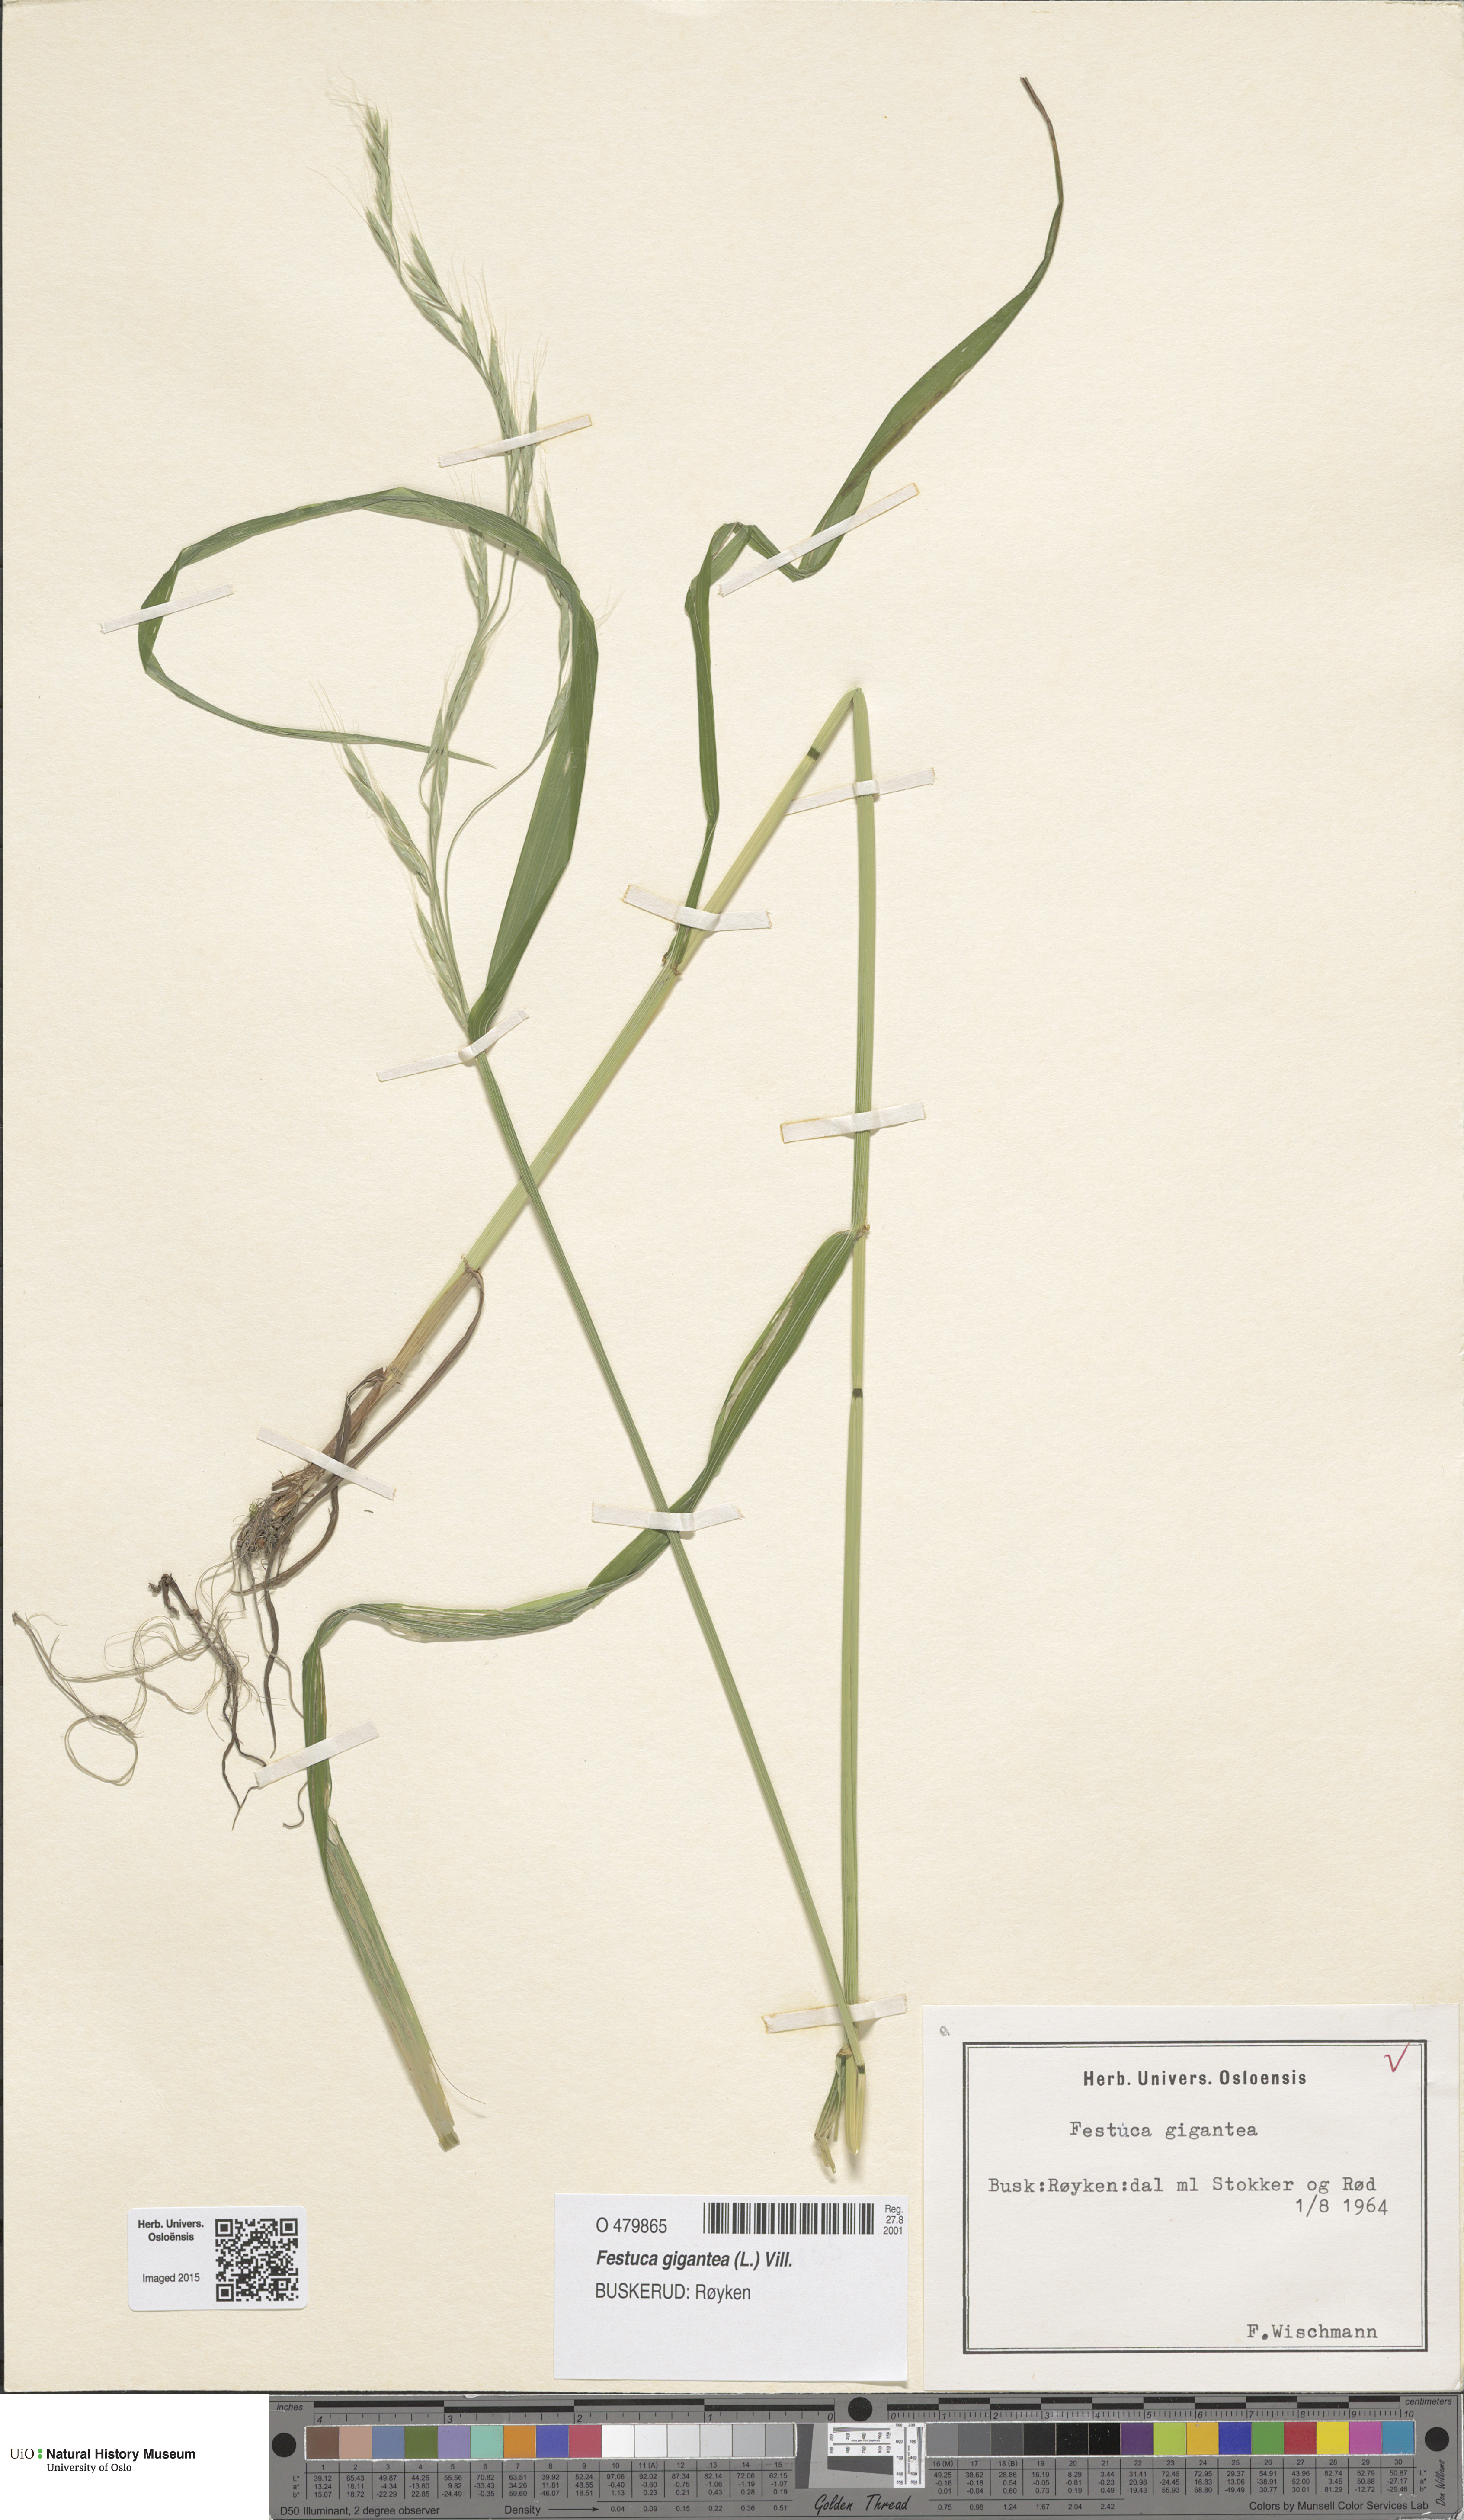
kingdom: Plantae
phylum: Tracheophyta
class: Liliopsida
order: Poales
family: Poaceae
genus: Lolium
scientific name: Lolium giganteum
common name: Giant fescue
